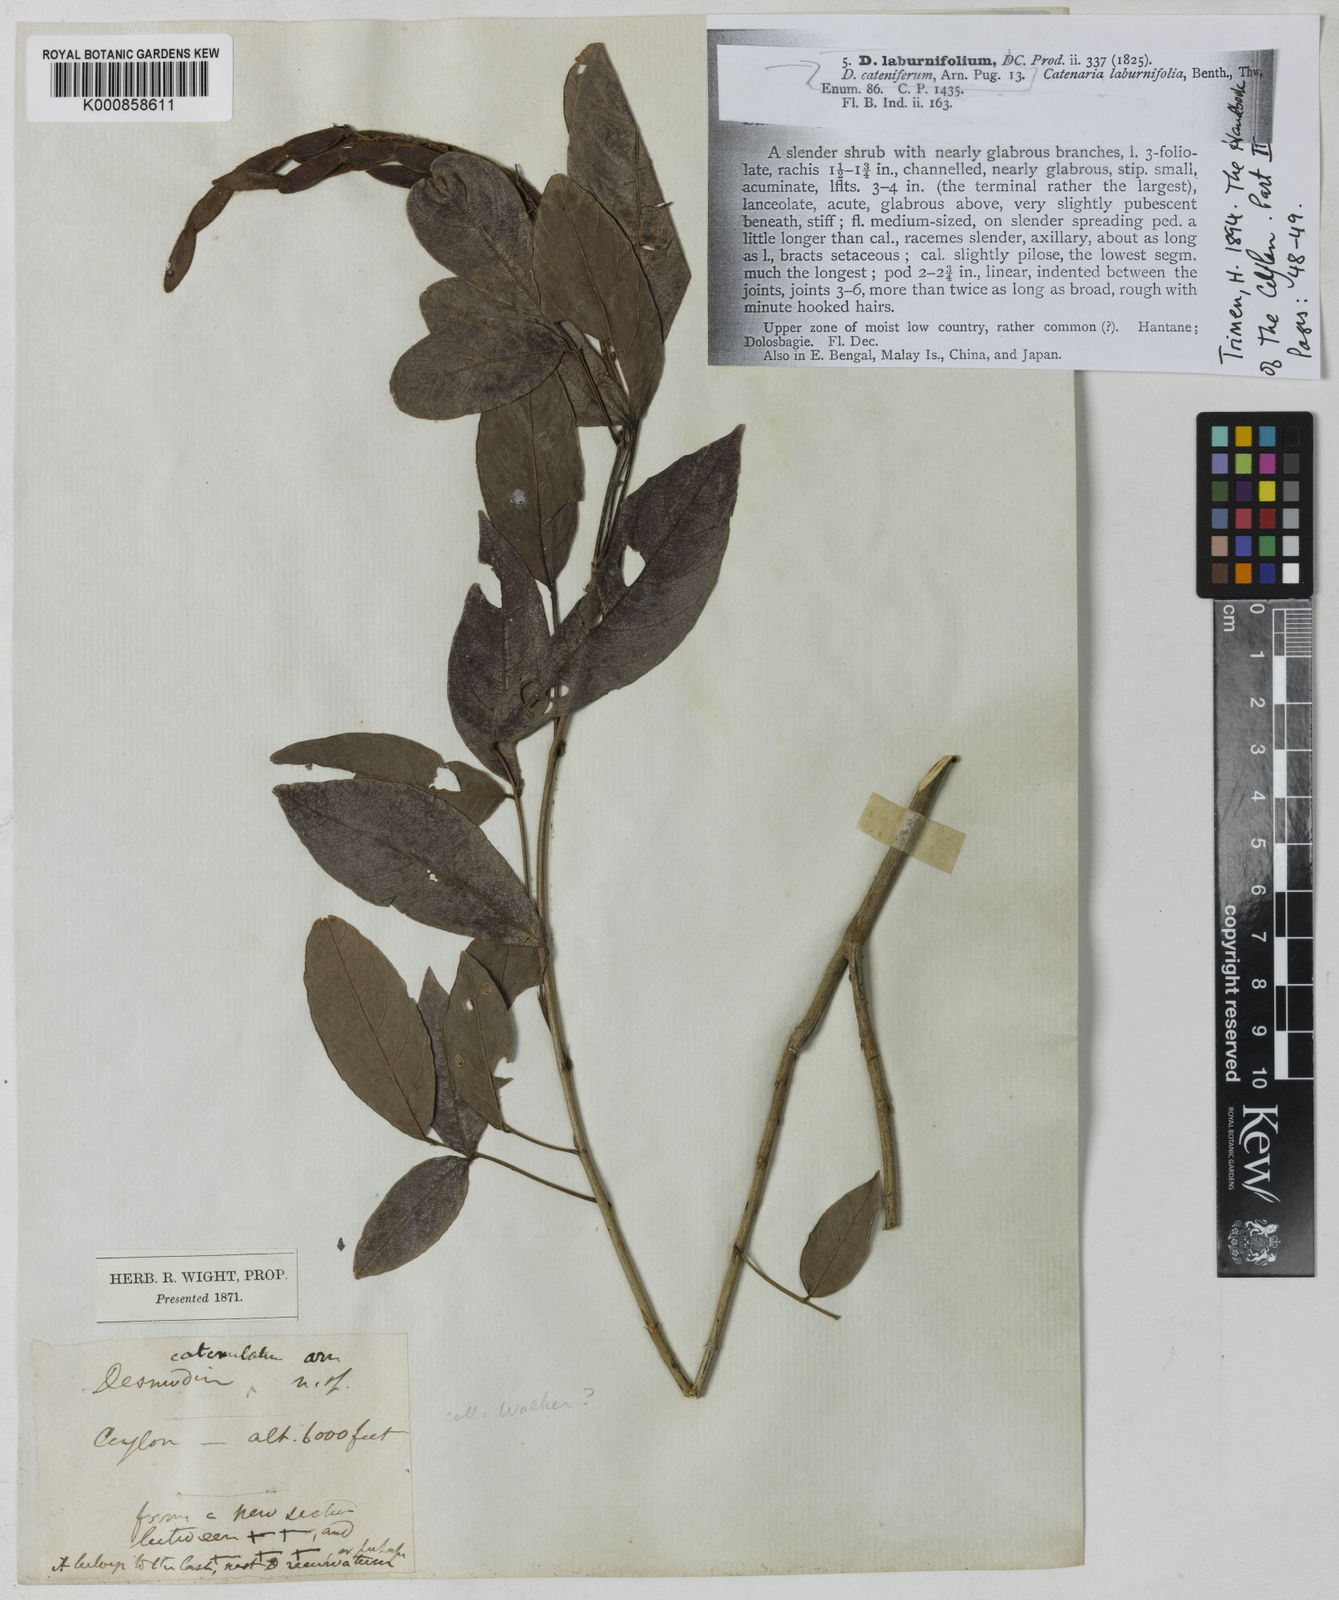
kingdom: Plantae
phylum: Tracheophyta
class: Magnoliopsida
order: Fabales
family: Fabaceae
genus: Ohwia
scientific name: Ohwia caudata
